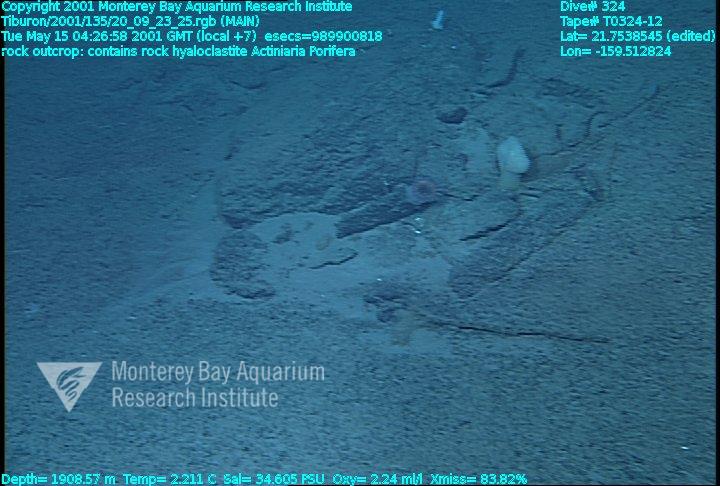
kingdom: Animalia
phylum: Porifera
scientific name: Porifera
